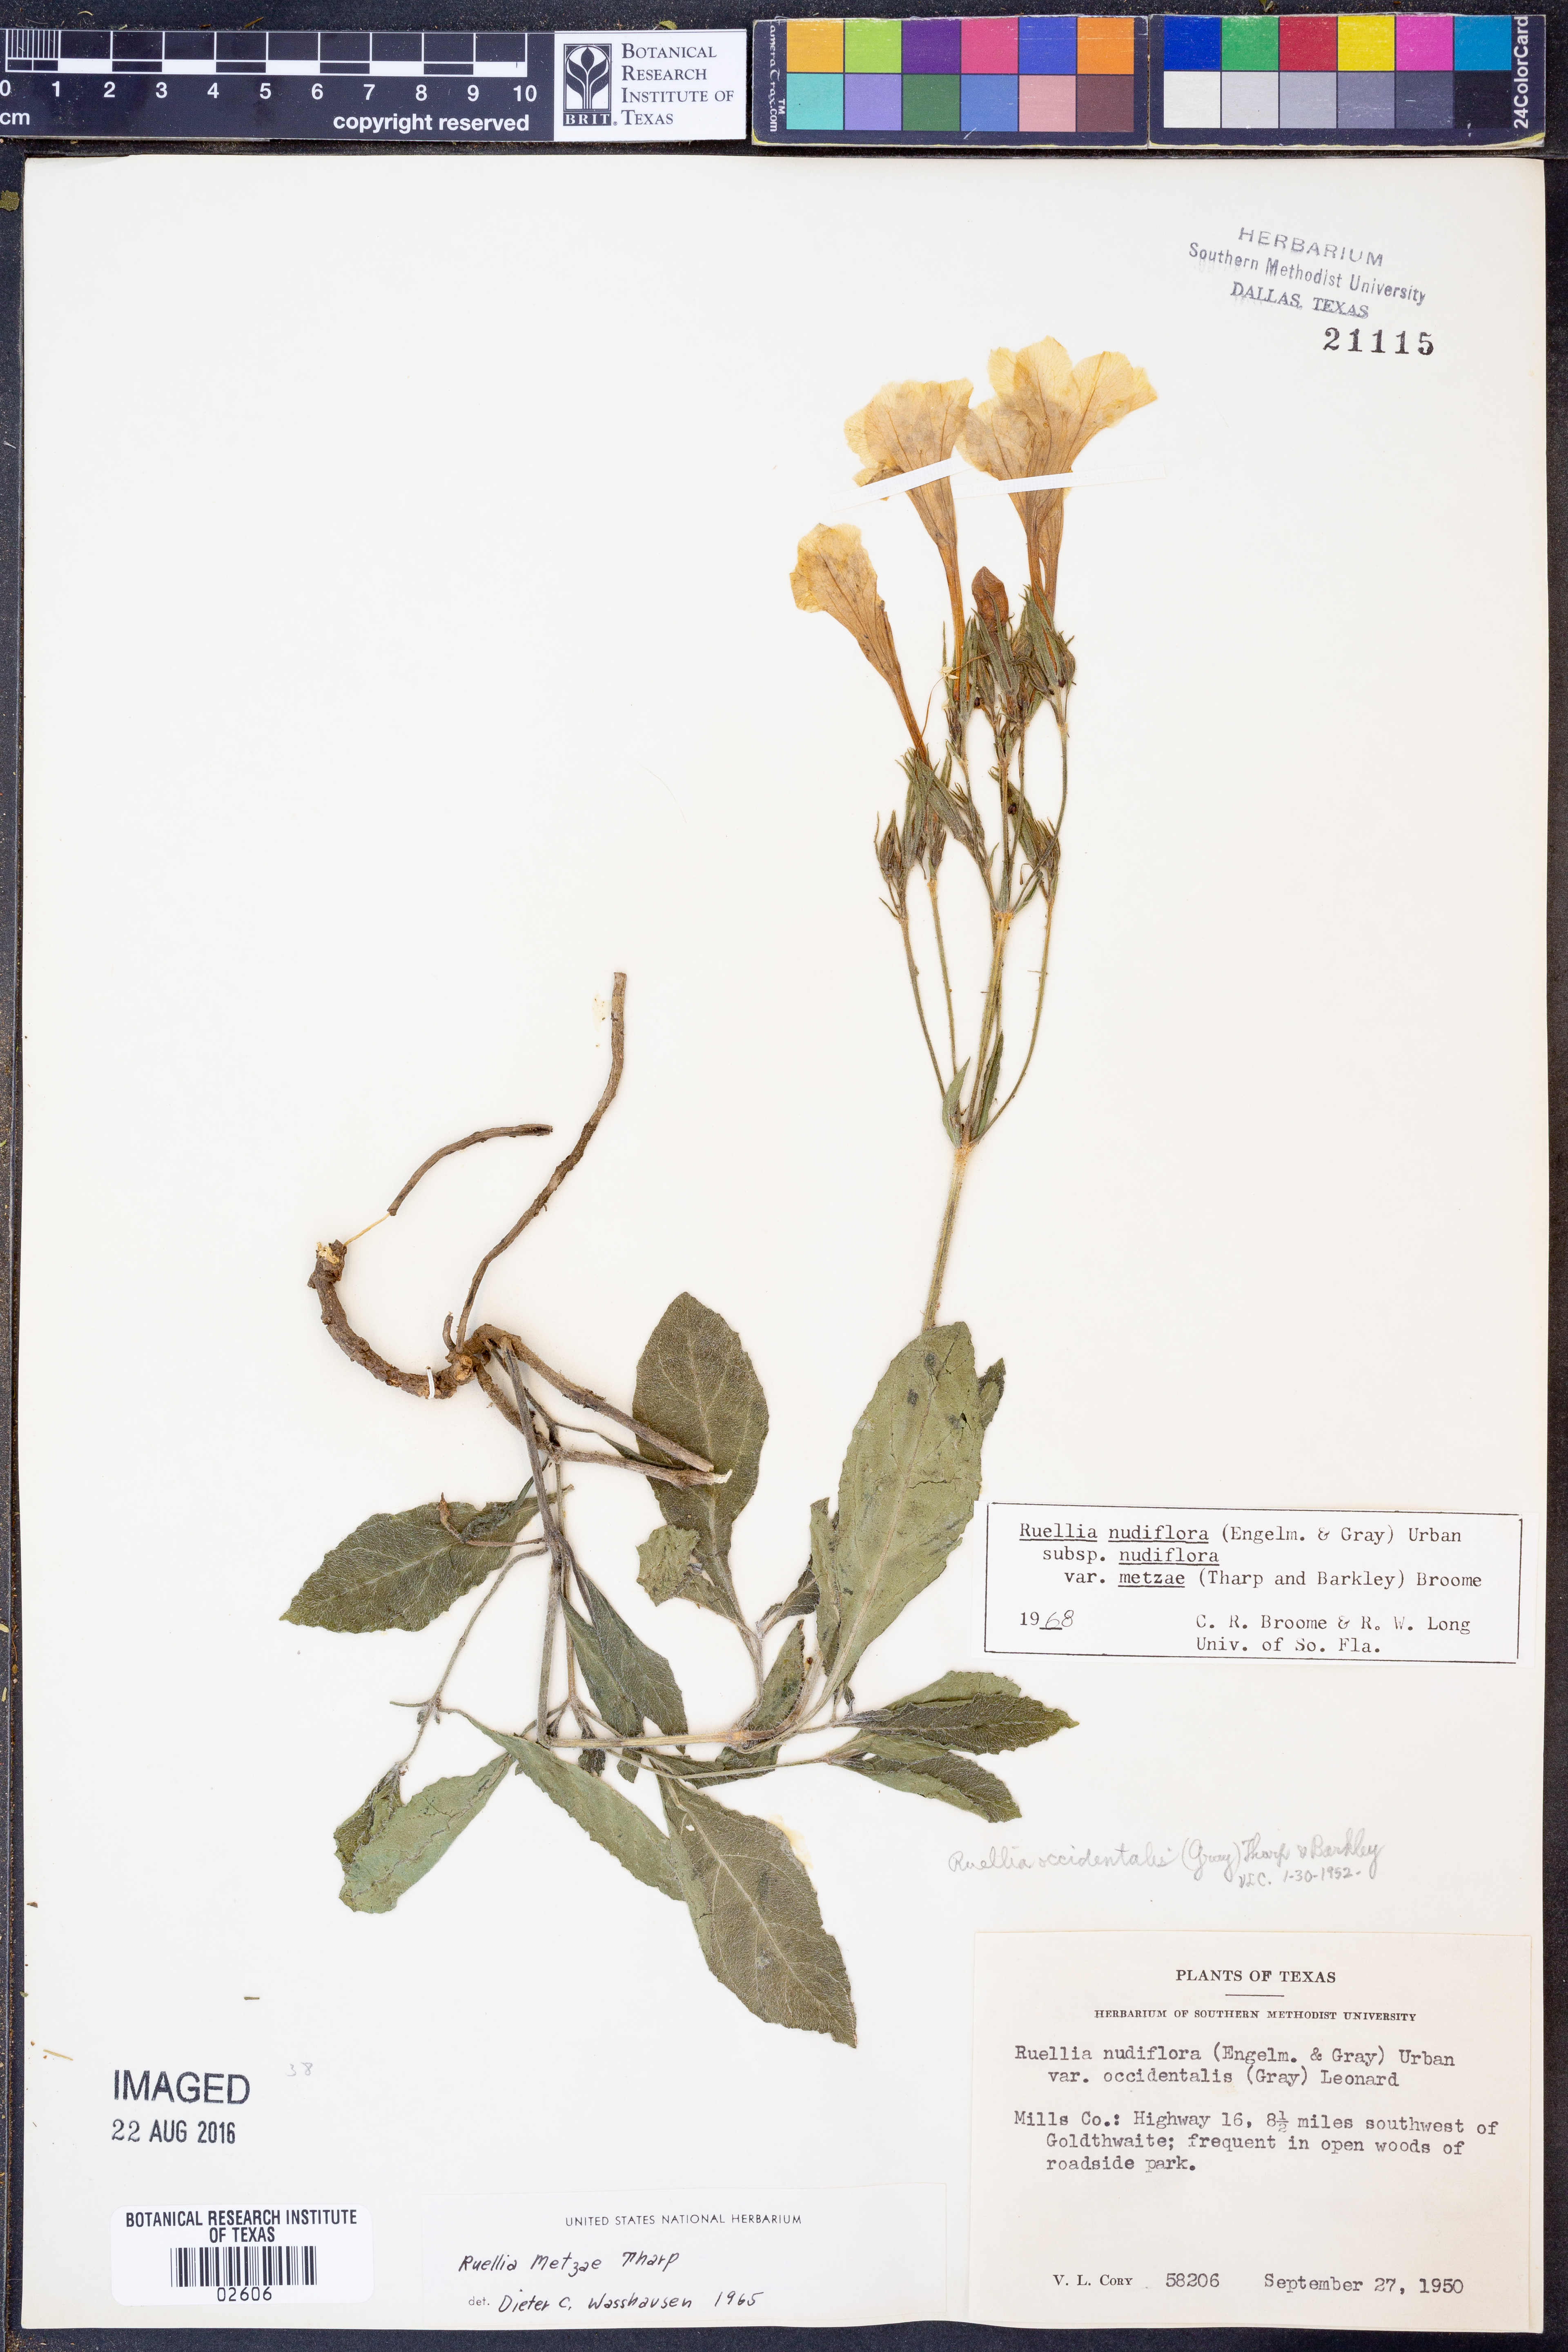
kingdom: Plantae
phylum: Tracheophyta
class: Magnoliopsida
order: Lamiales
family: Acanthaceae
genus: Ruellia
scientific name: Ruellia ciliatiflora
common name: Hairyflower wild petunia
